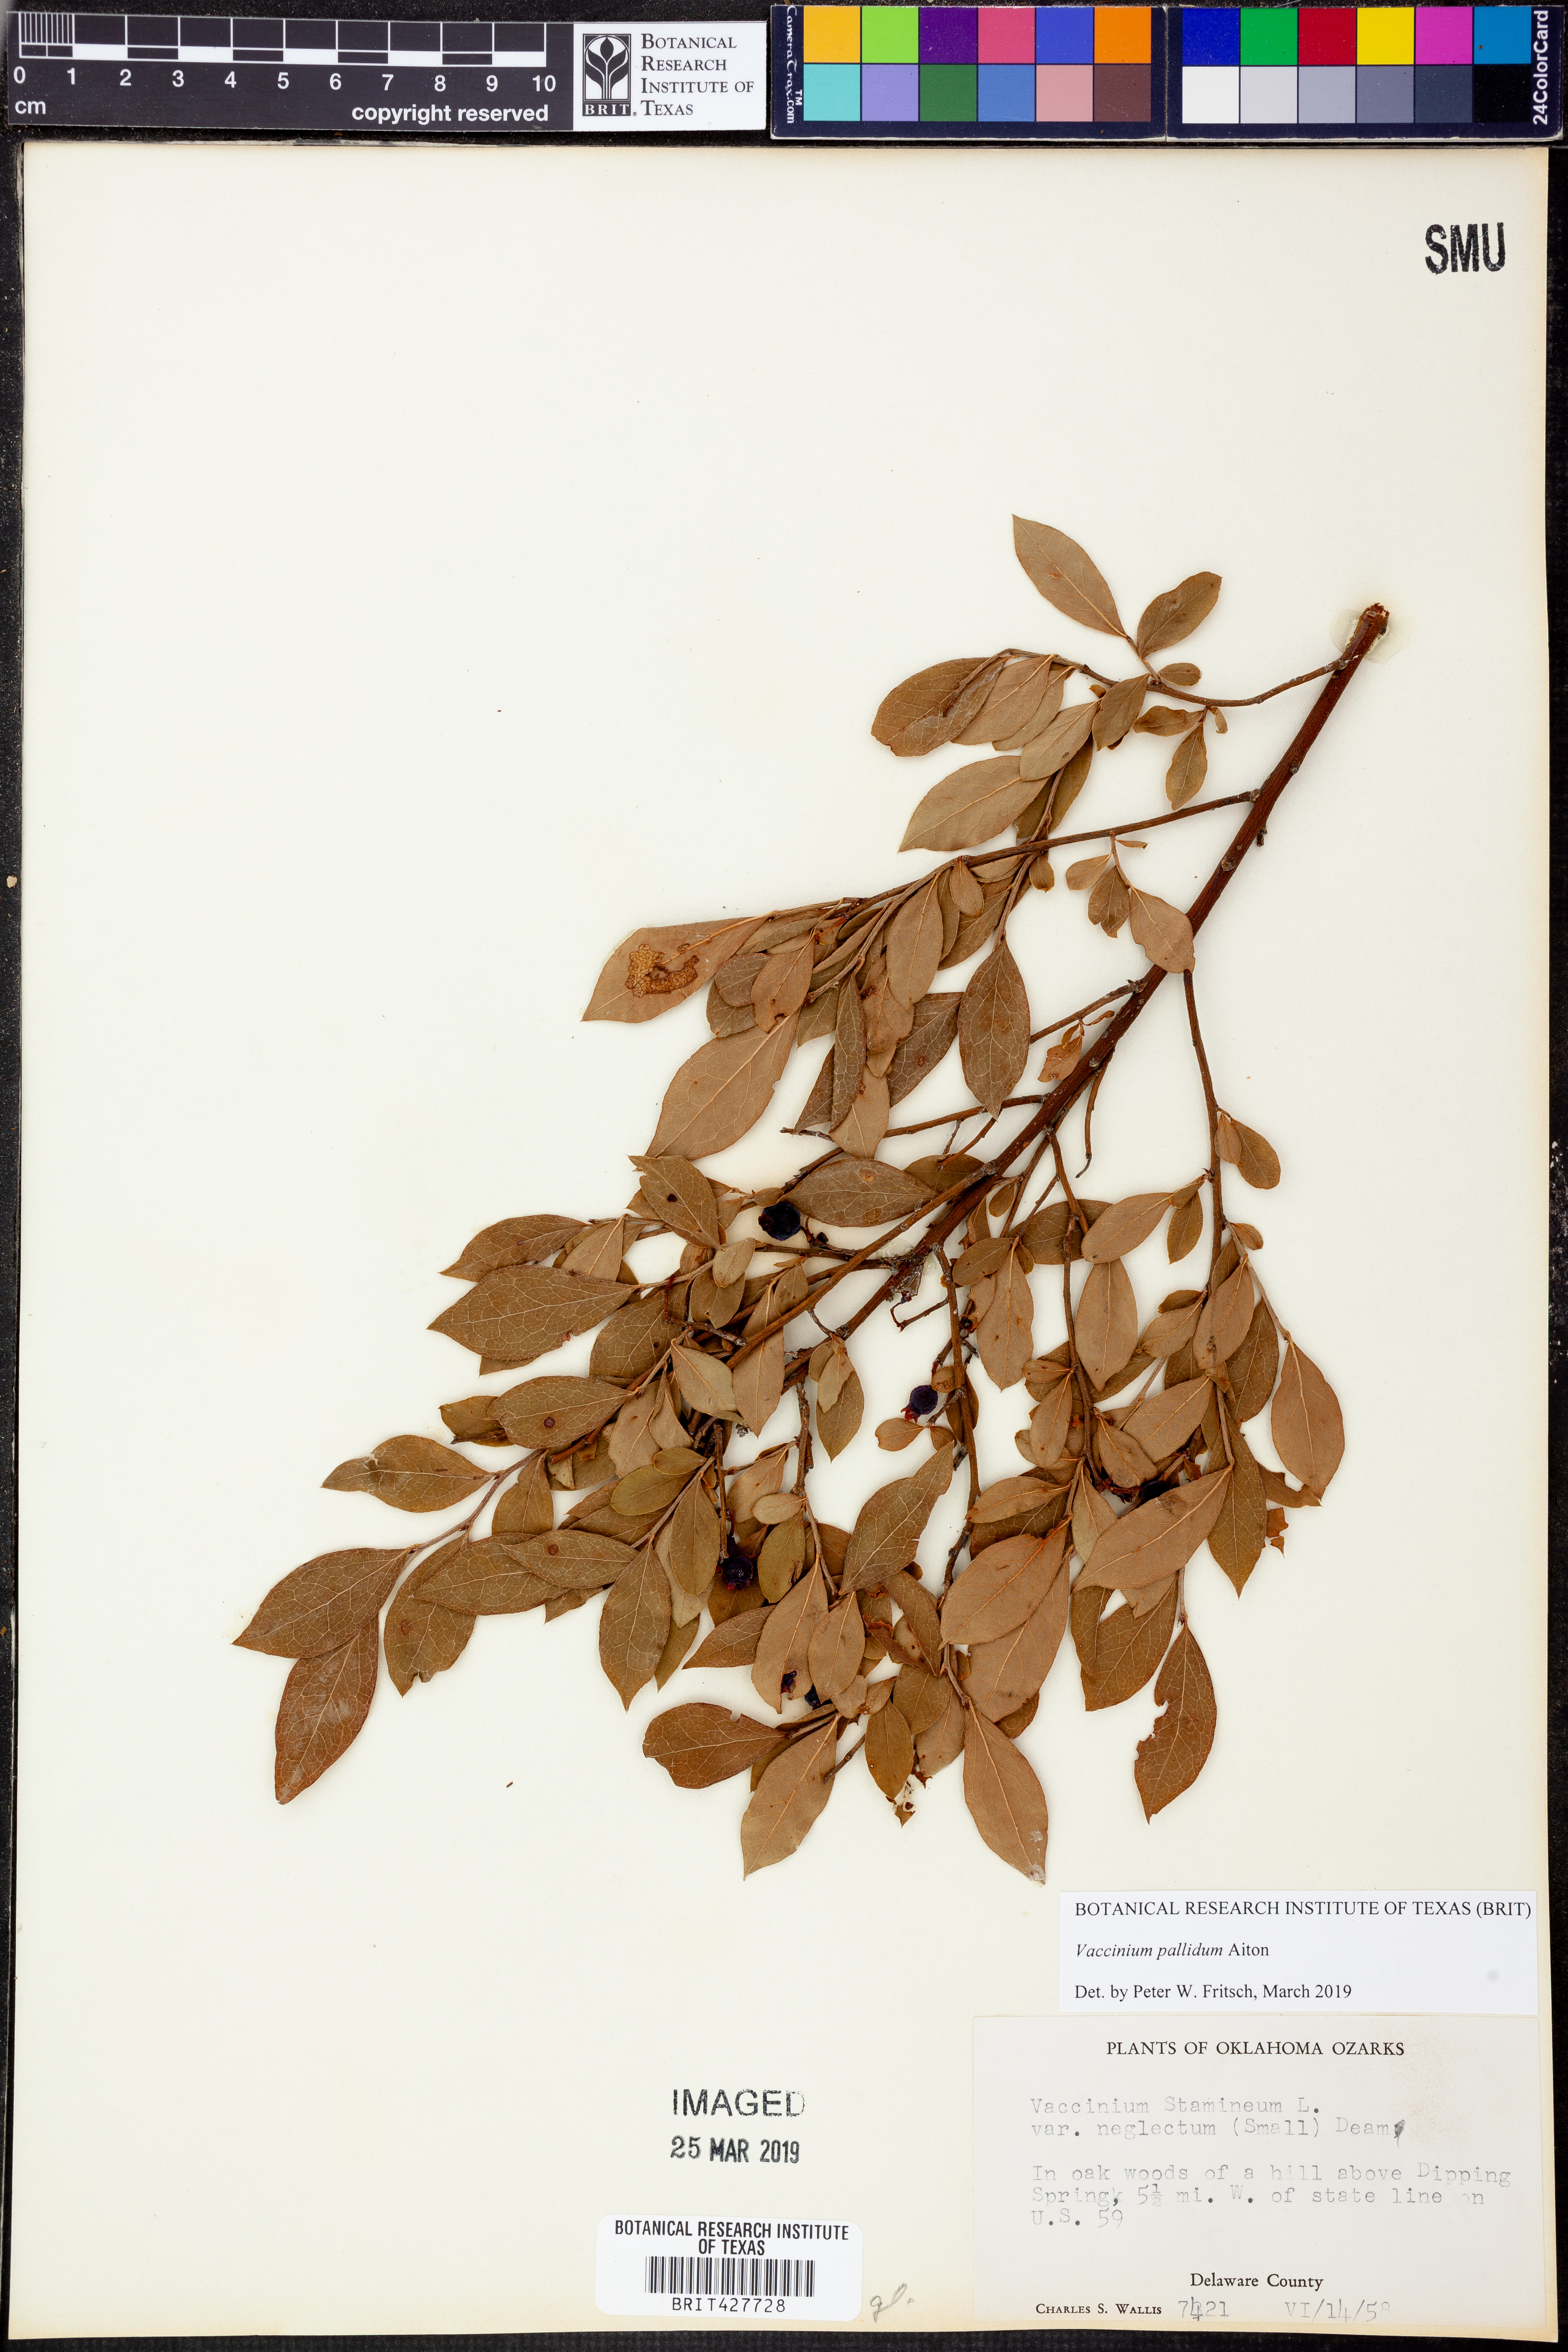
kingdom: Plantae
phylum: Tracheophyta
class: Magnoliopsida
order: Ericales
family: Ericaceae
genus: Vaccinium
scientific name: Vaccinium pallidum
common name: Blue ridge blueberry
